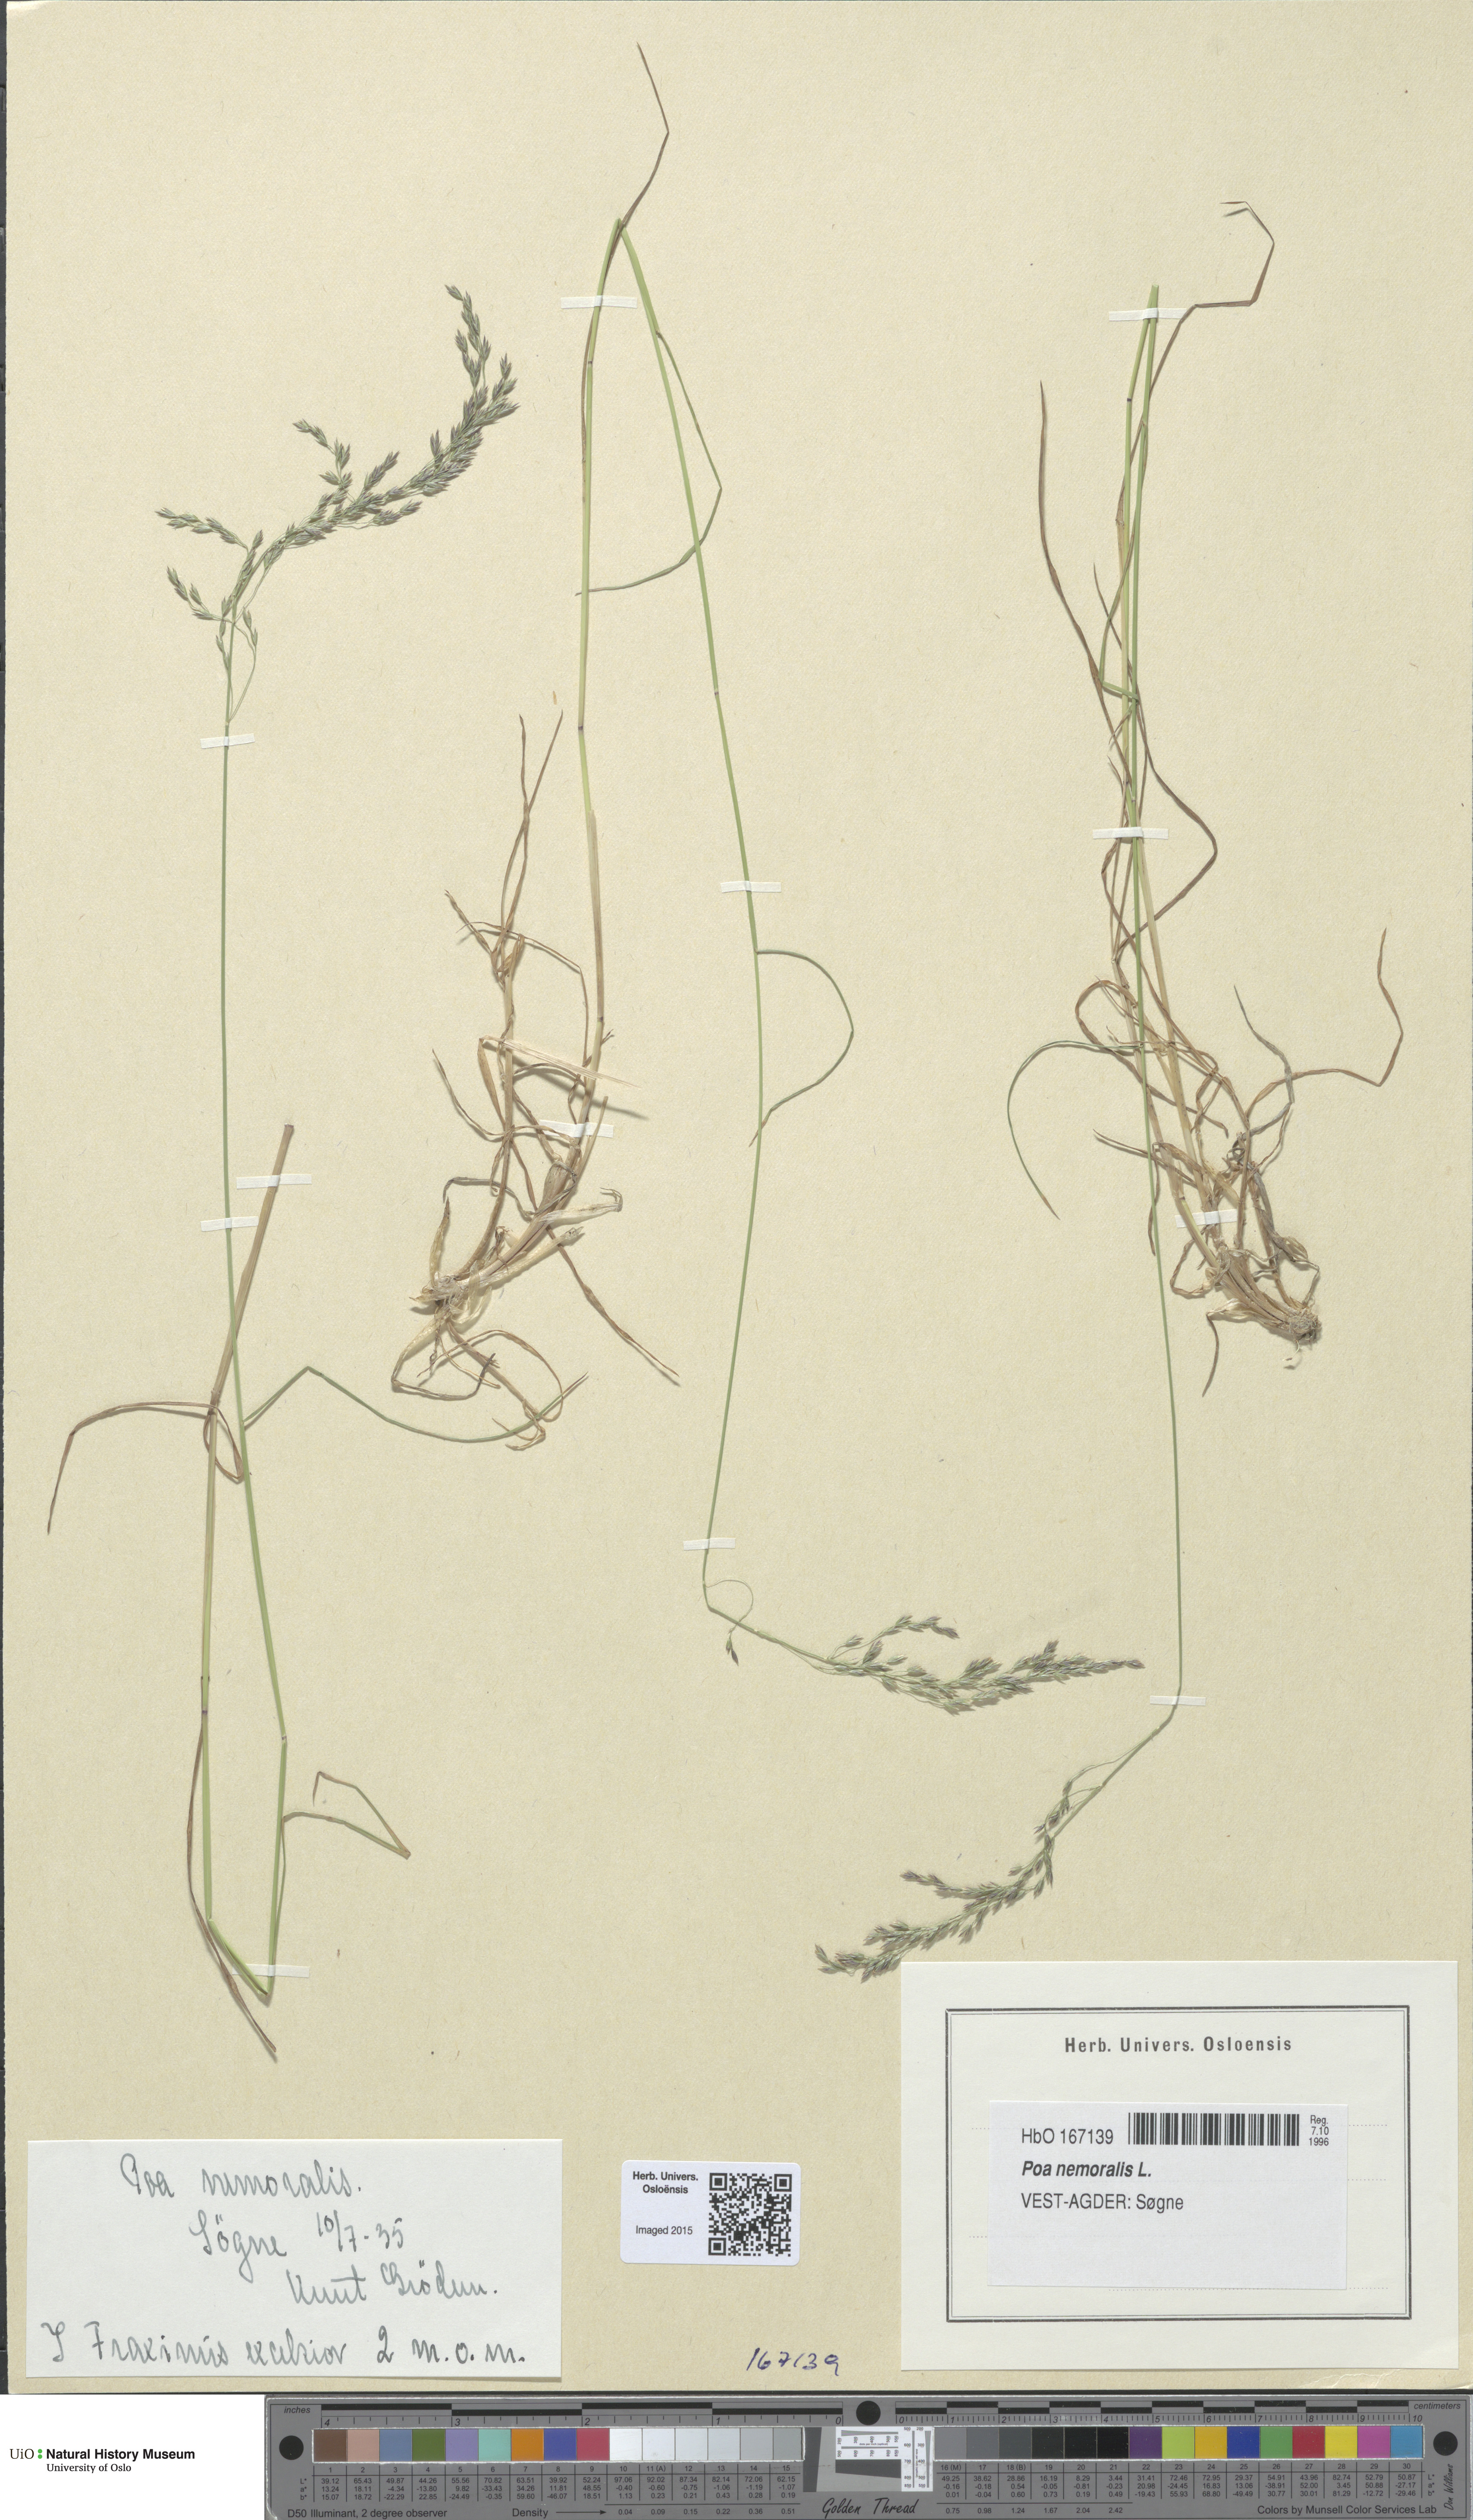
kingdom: Plantae
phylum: Tracheophyta
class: Liliopsida
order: Poales
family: Poaceae
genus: Poa
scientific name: Poa nemoralis
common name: Wood bluegrass
